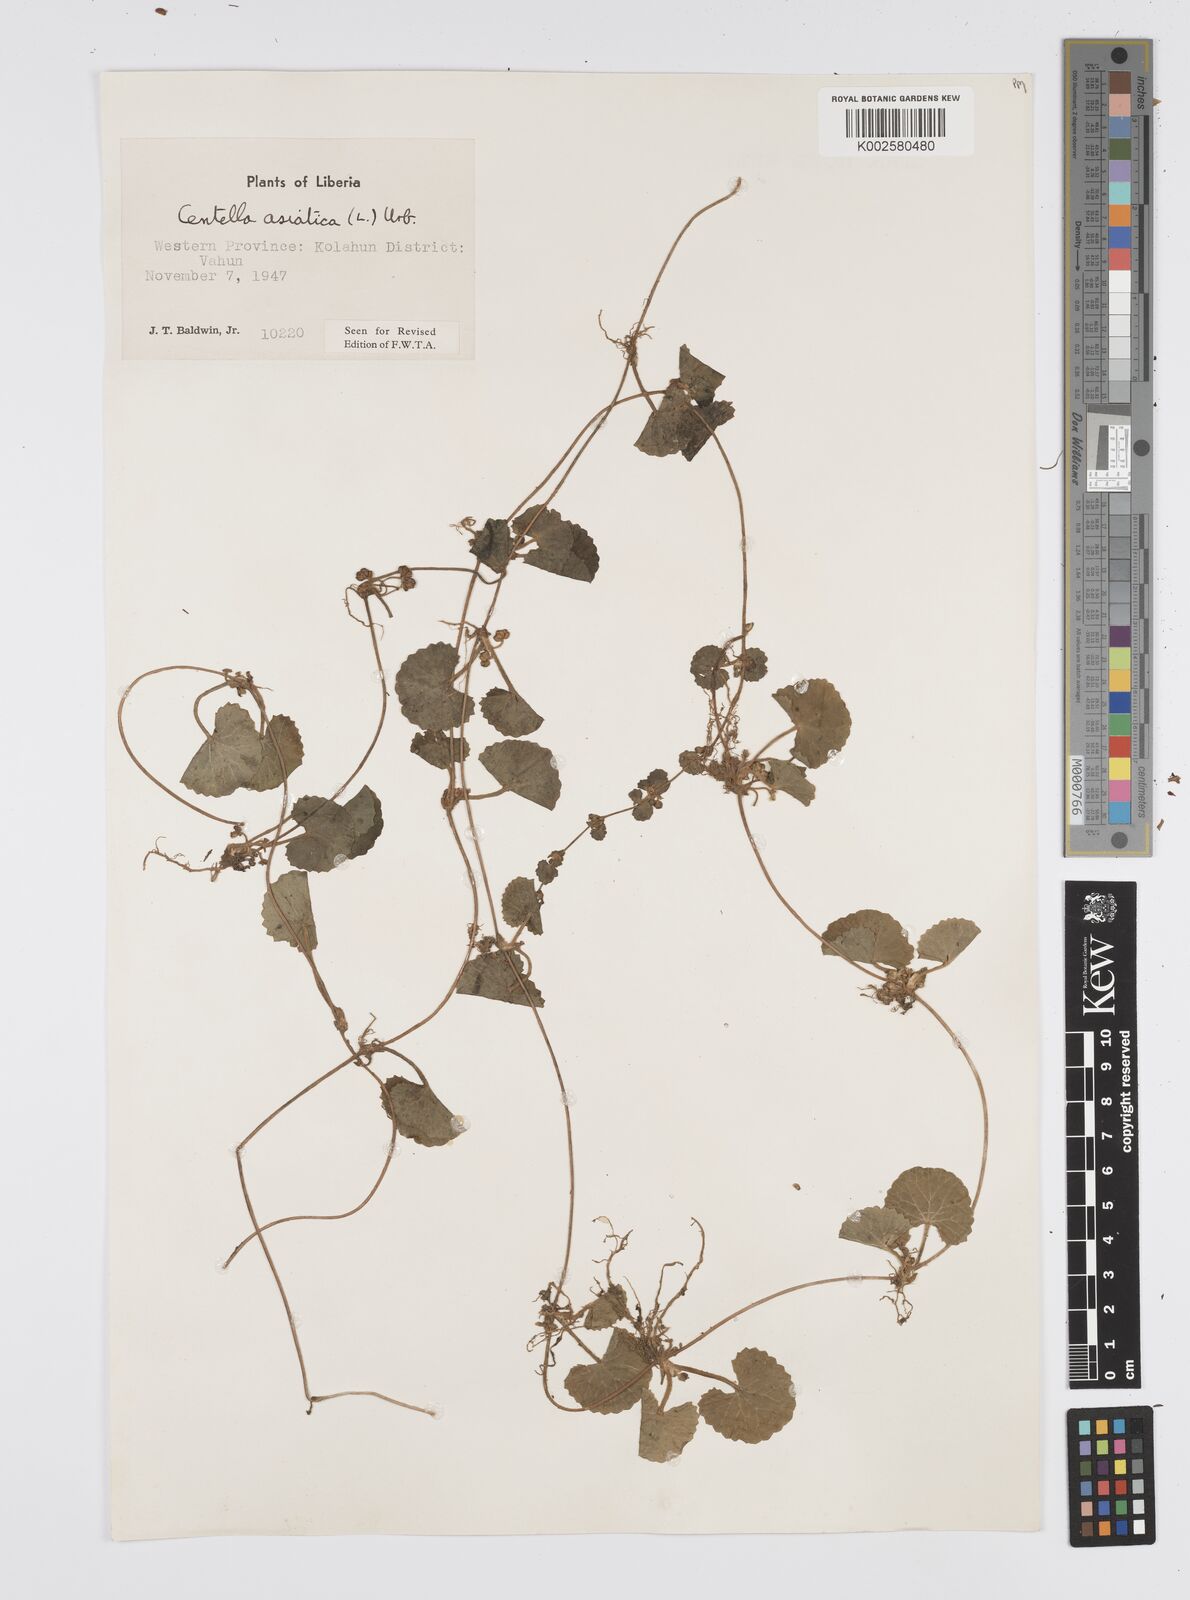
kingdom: Plantae
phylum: Tracheophyta
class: Magnoliopsida
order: Apiales
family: Apiaceae
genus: Centella
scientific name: Centella asiatica
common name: Spadeleaf
